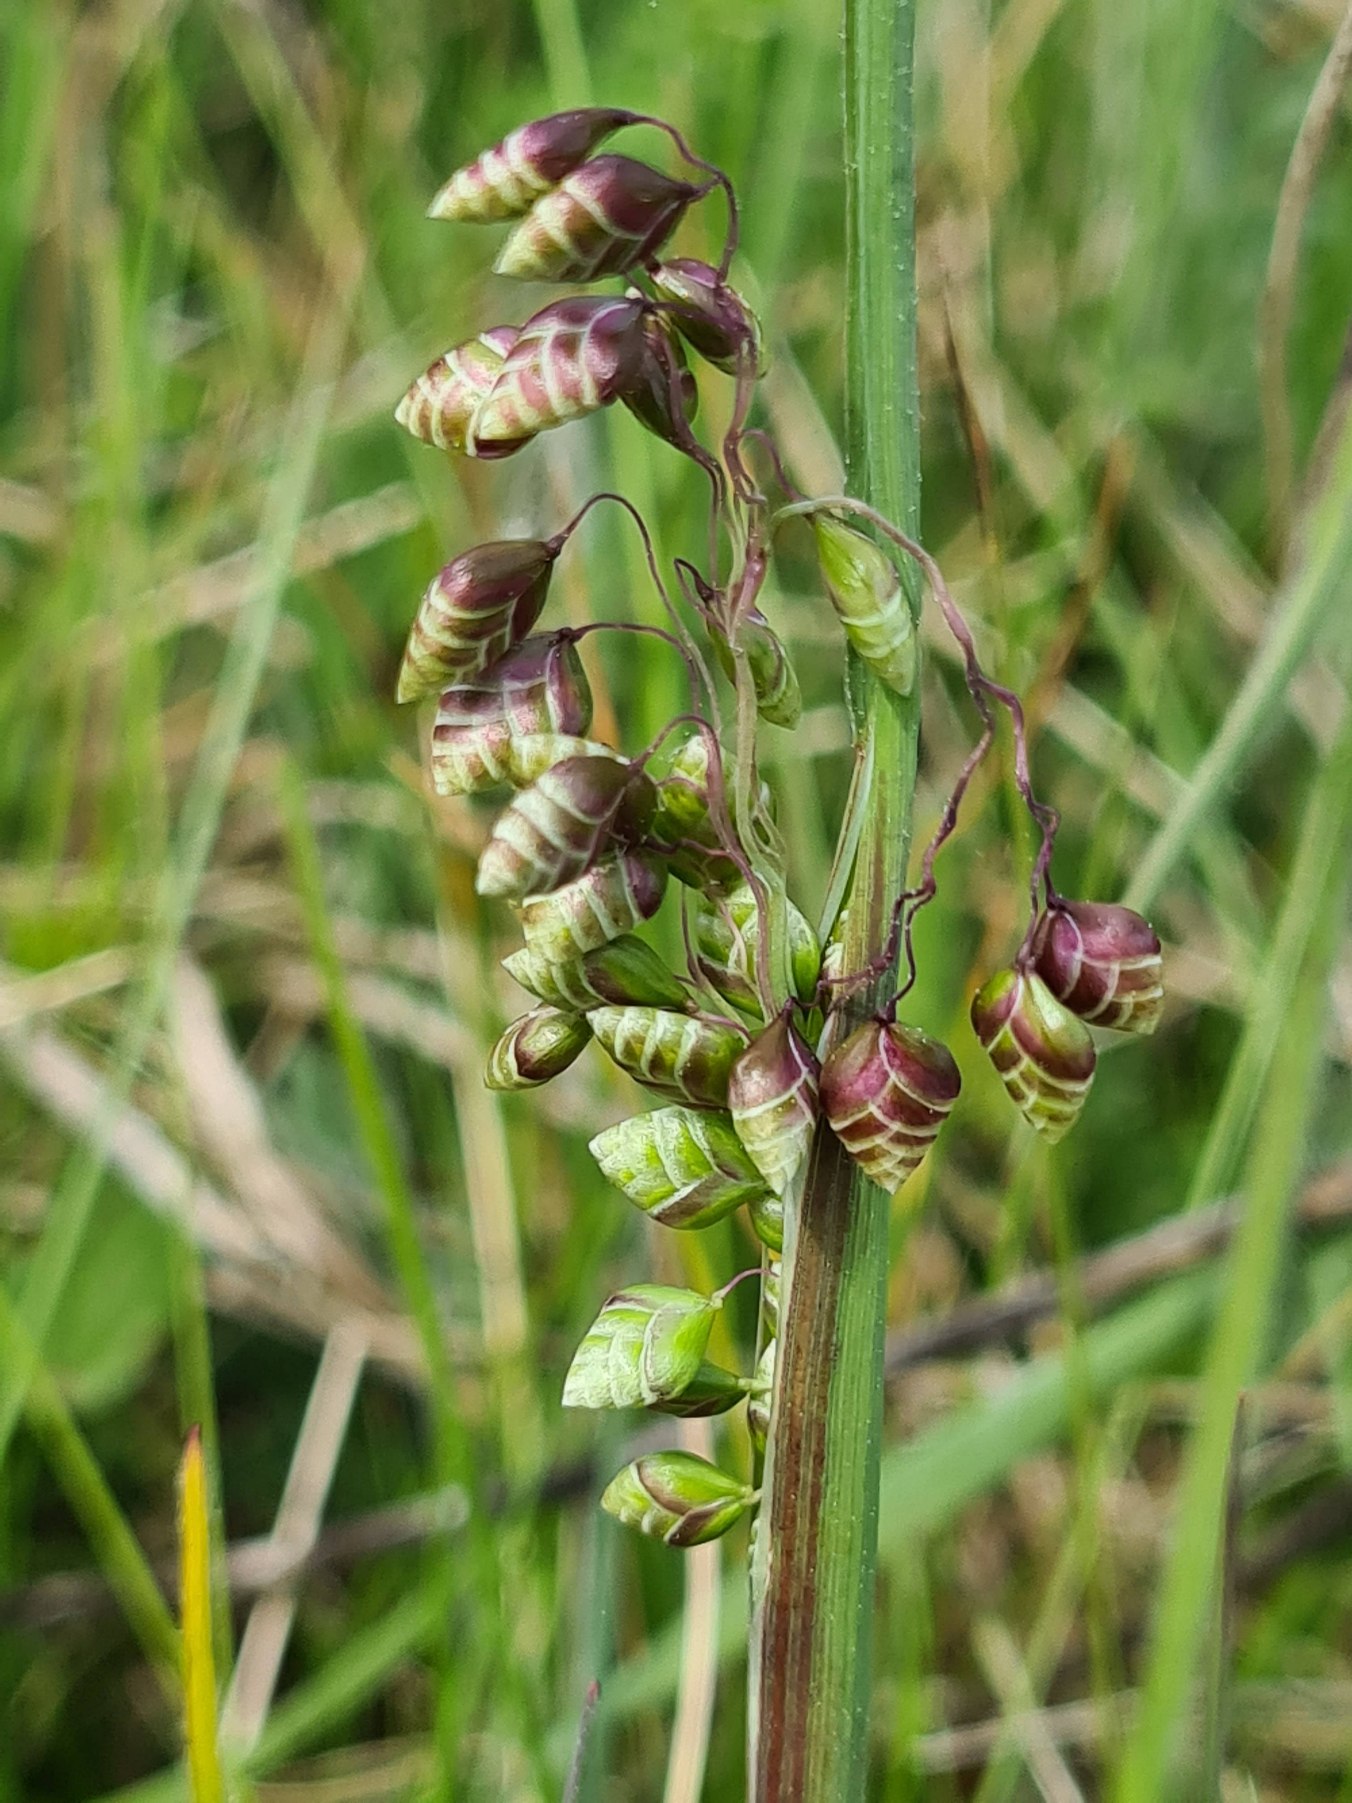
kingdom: Plantae
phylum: Tracheophyta
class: Liliopsida
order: Poales
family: Poaceae
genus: Briza
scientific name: Briza media
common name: Hjertegræs
